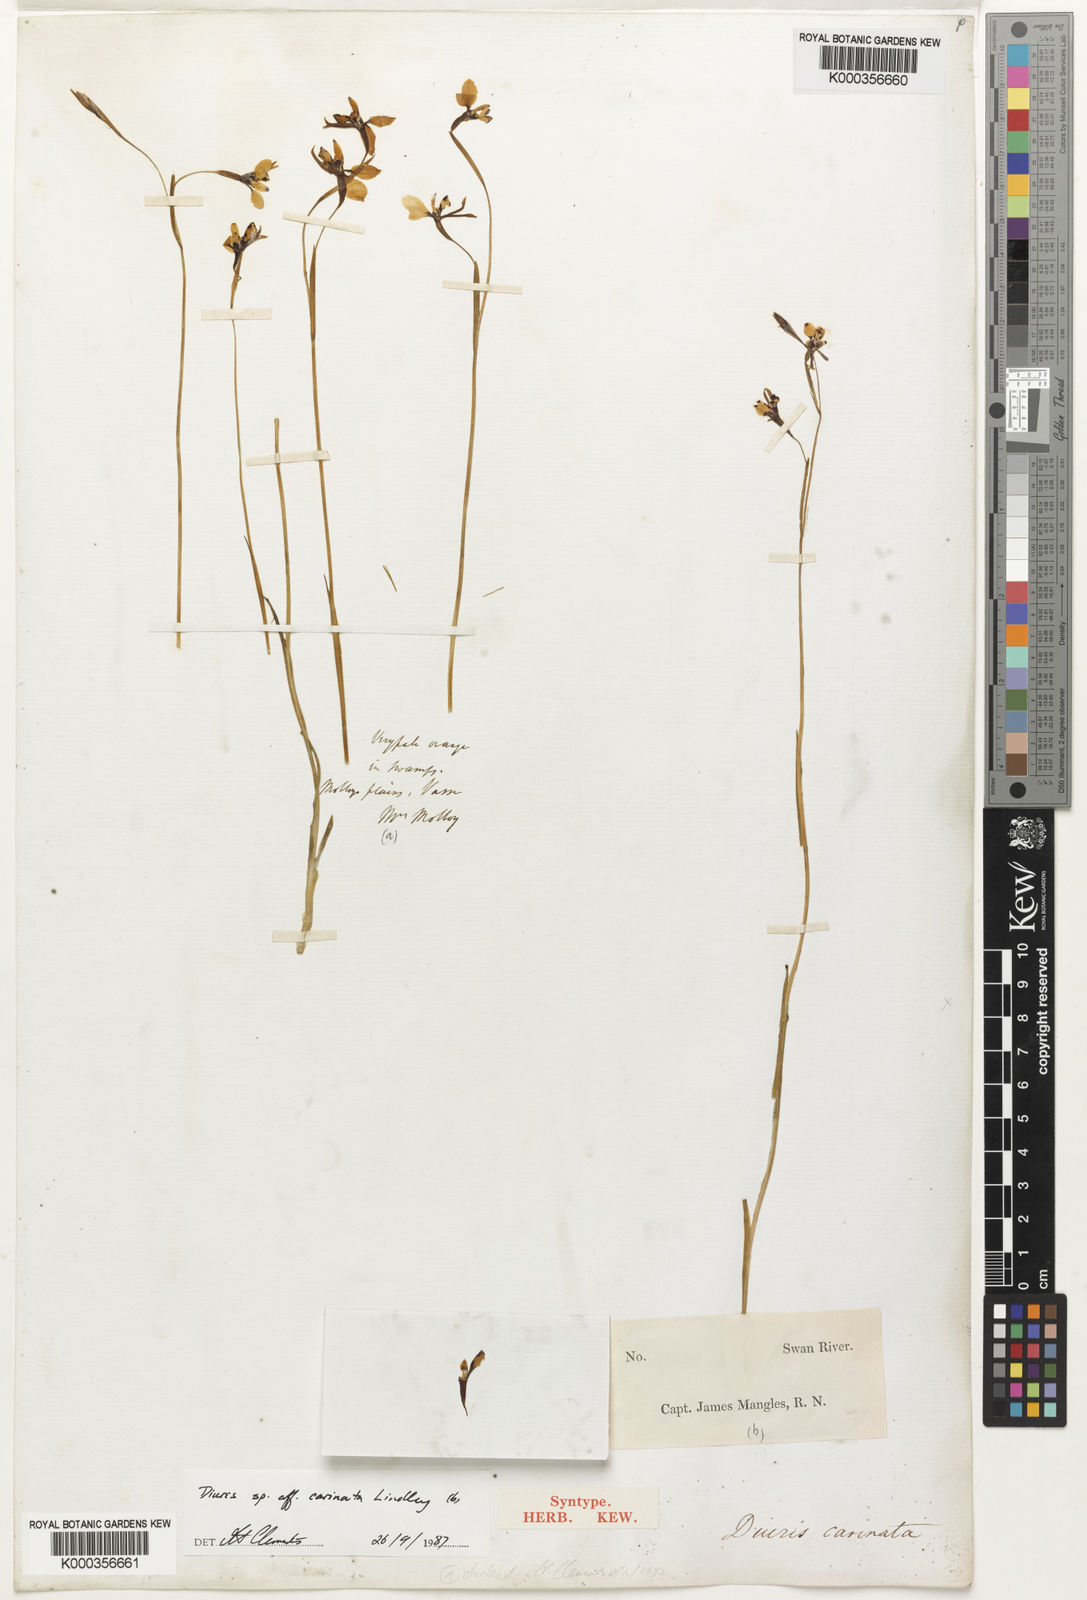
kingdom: Plantae
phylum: Tracheophyta
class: Liliopsida
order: Asparagales
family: Orchidaceae
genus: Diuris
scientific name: Diuris carinata
